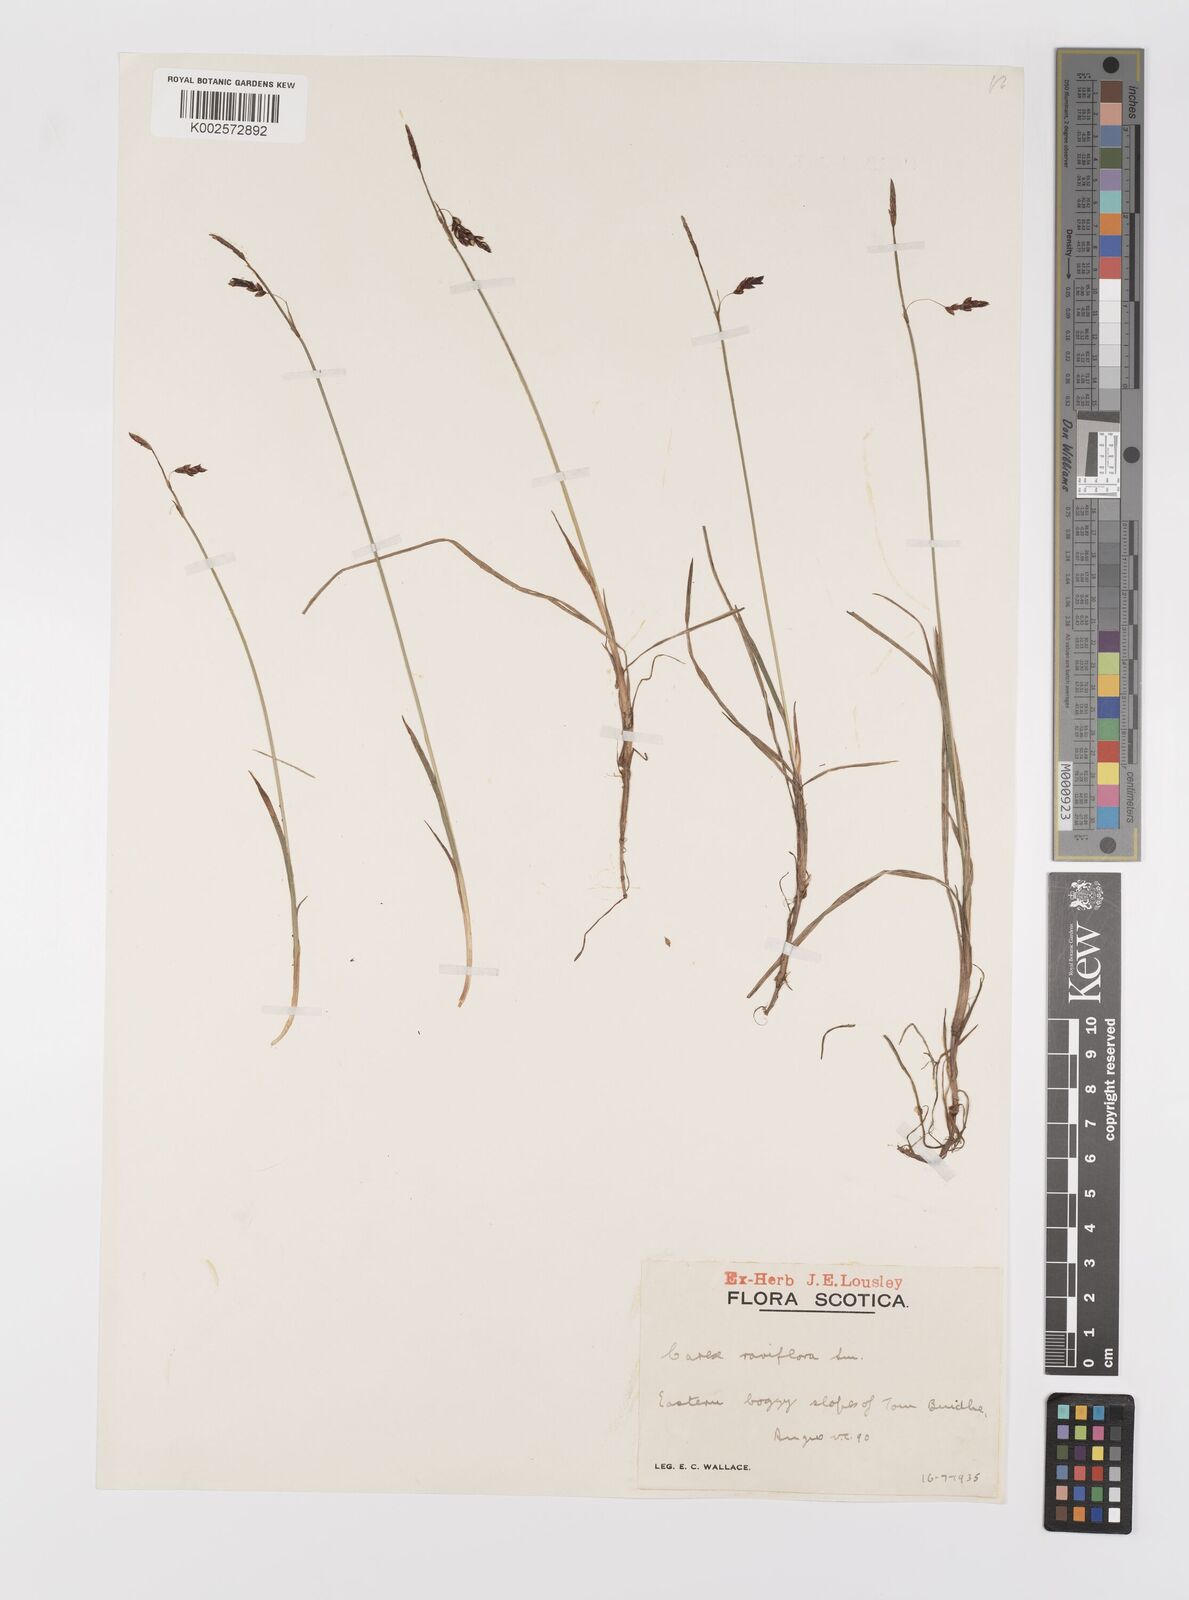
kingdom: Plantae
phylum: Tracheophyta
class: Liliopsida
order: Poales
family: Cyperaceae
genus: Carex
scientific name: Carex rariflora
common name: Loose-flowered alpine sedge
